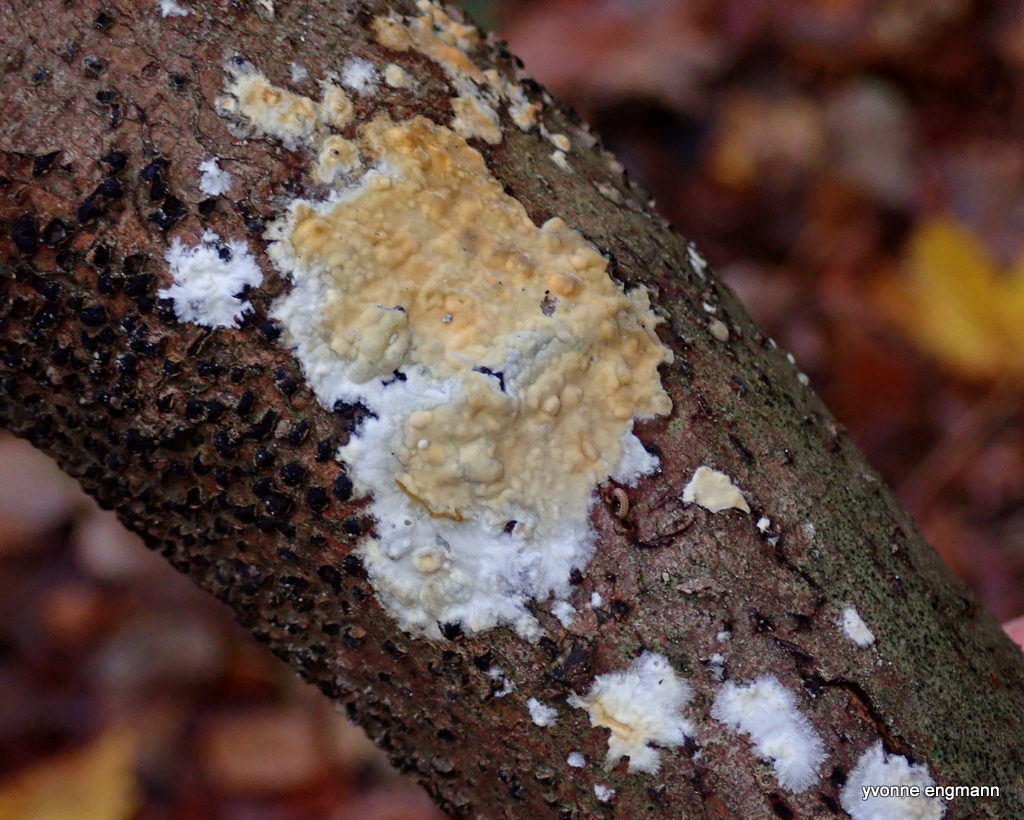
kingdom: Fungi
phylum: Basidiomycota
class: Agaricomycetes
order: Corticiales
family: Corticiaceae
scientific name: Corticiaceae
